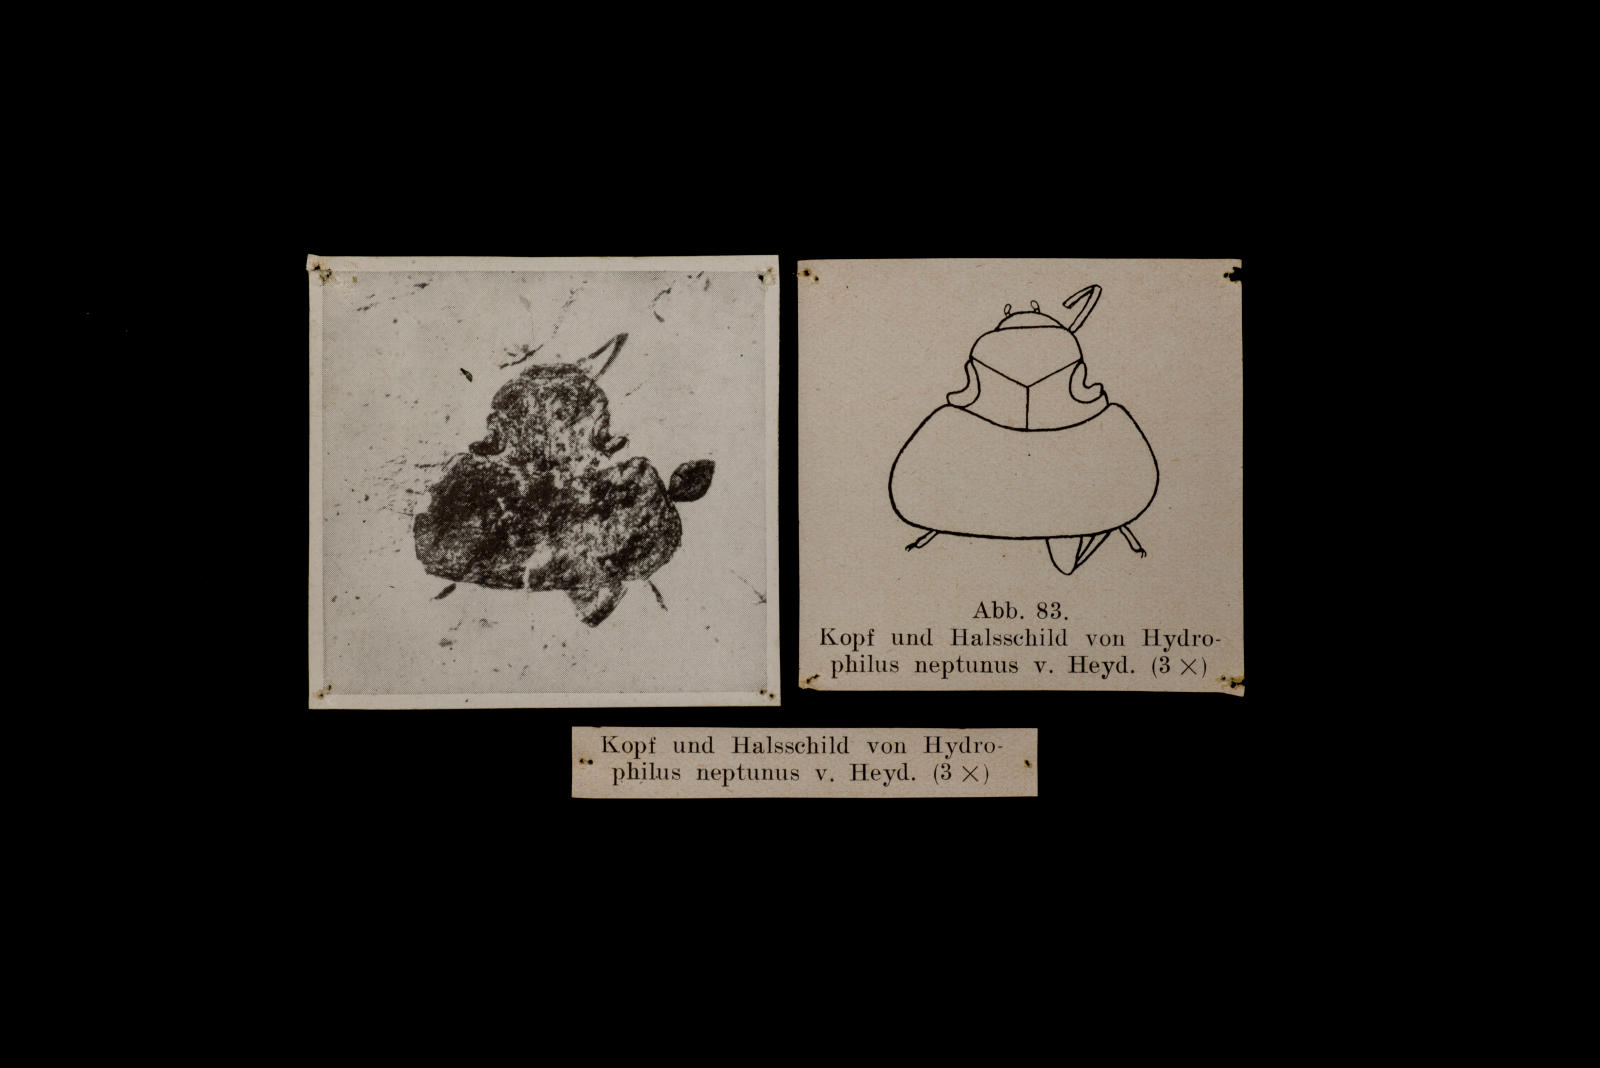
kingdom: Animalia
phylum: Arthropoda
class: Insecta
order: Coleoptera
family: Hydrophilidae
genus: Hydrobiomorpha
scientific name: Hydrobiomorpha fraterna
